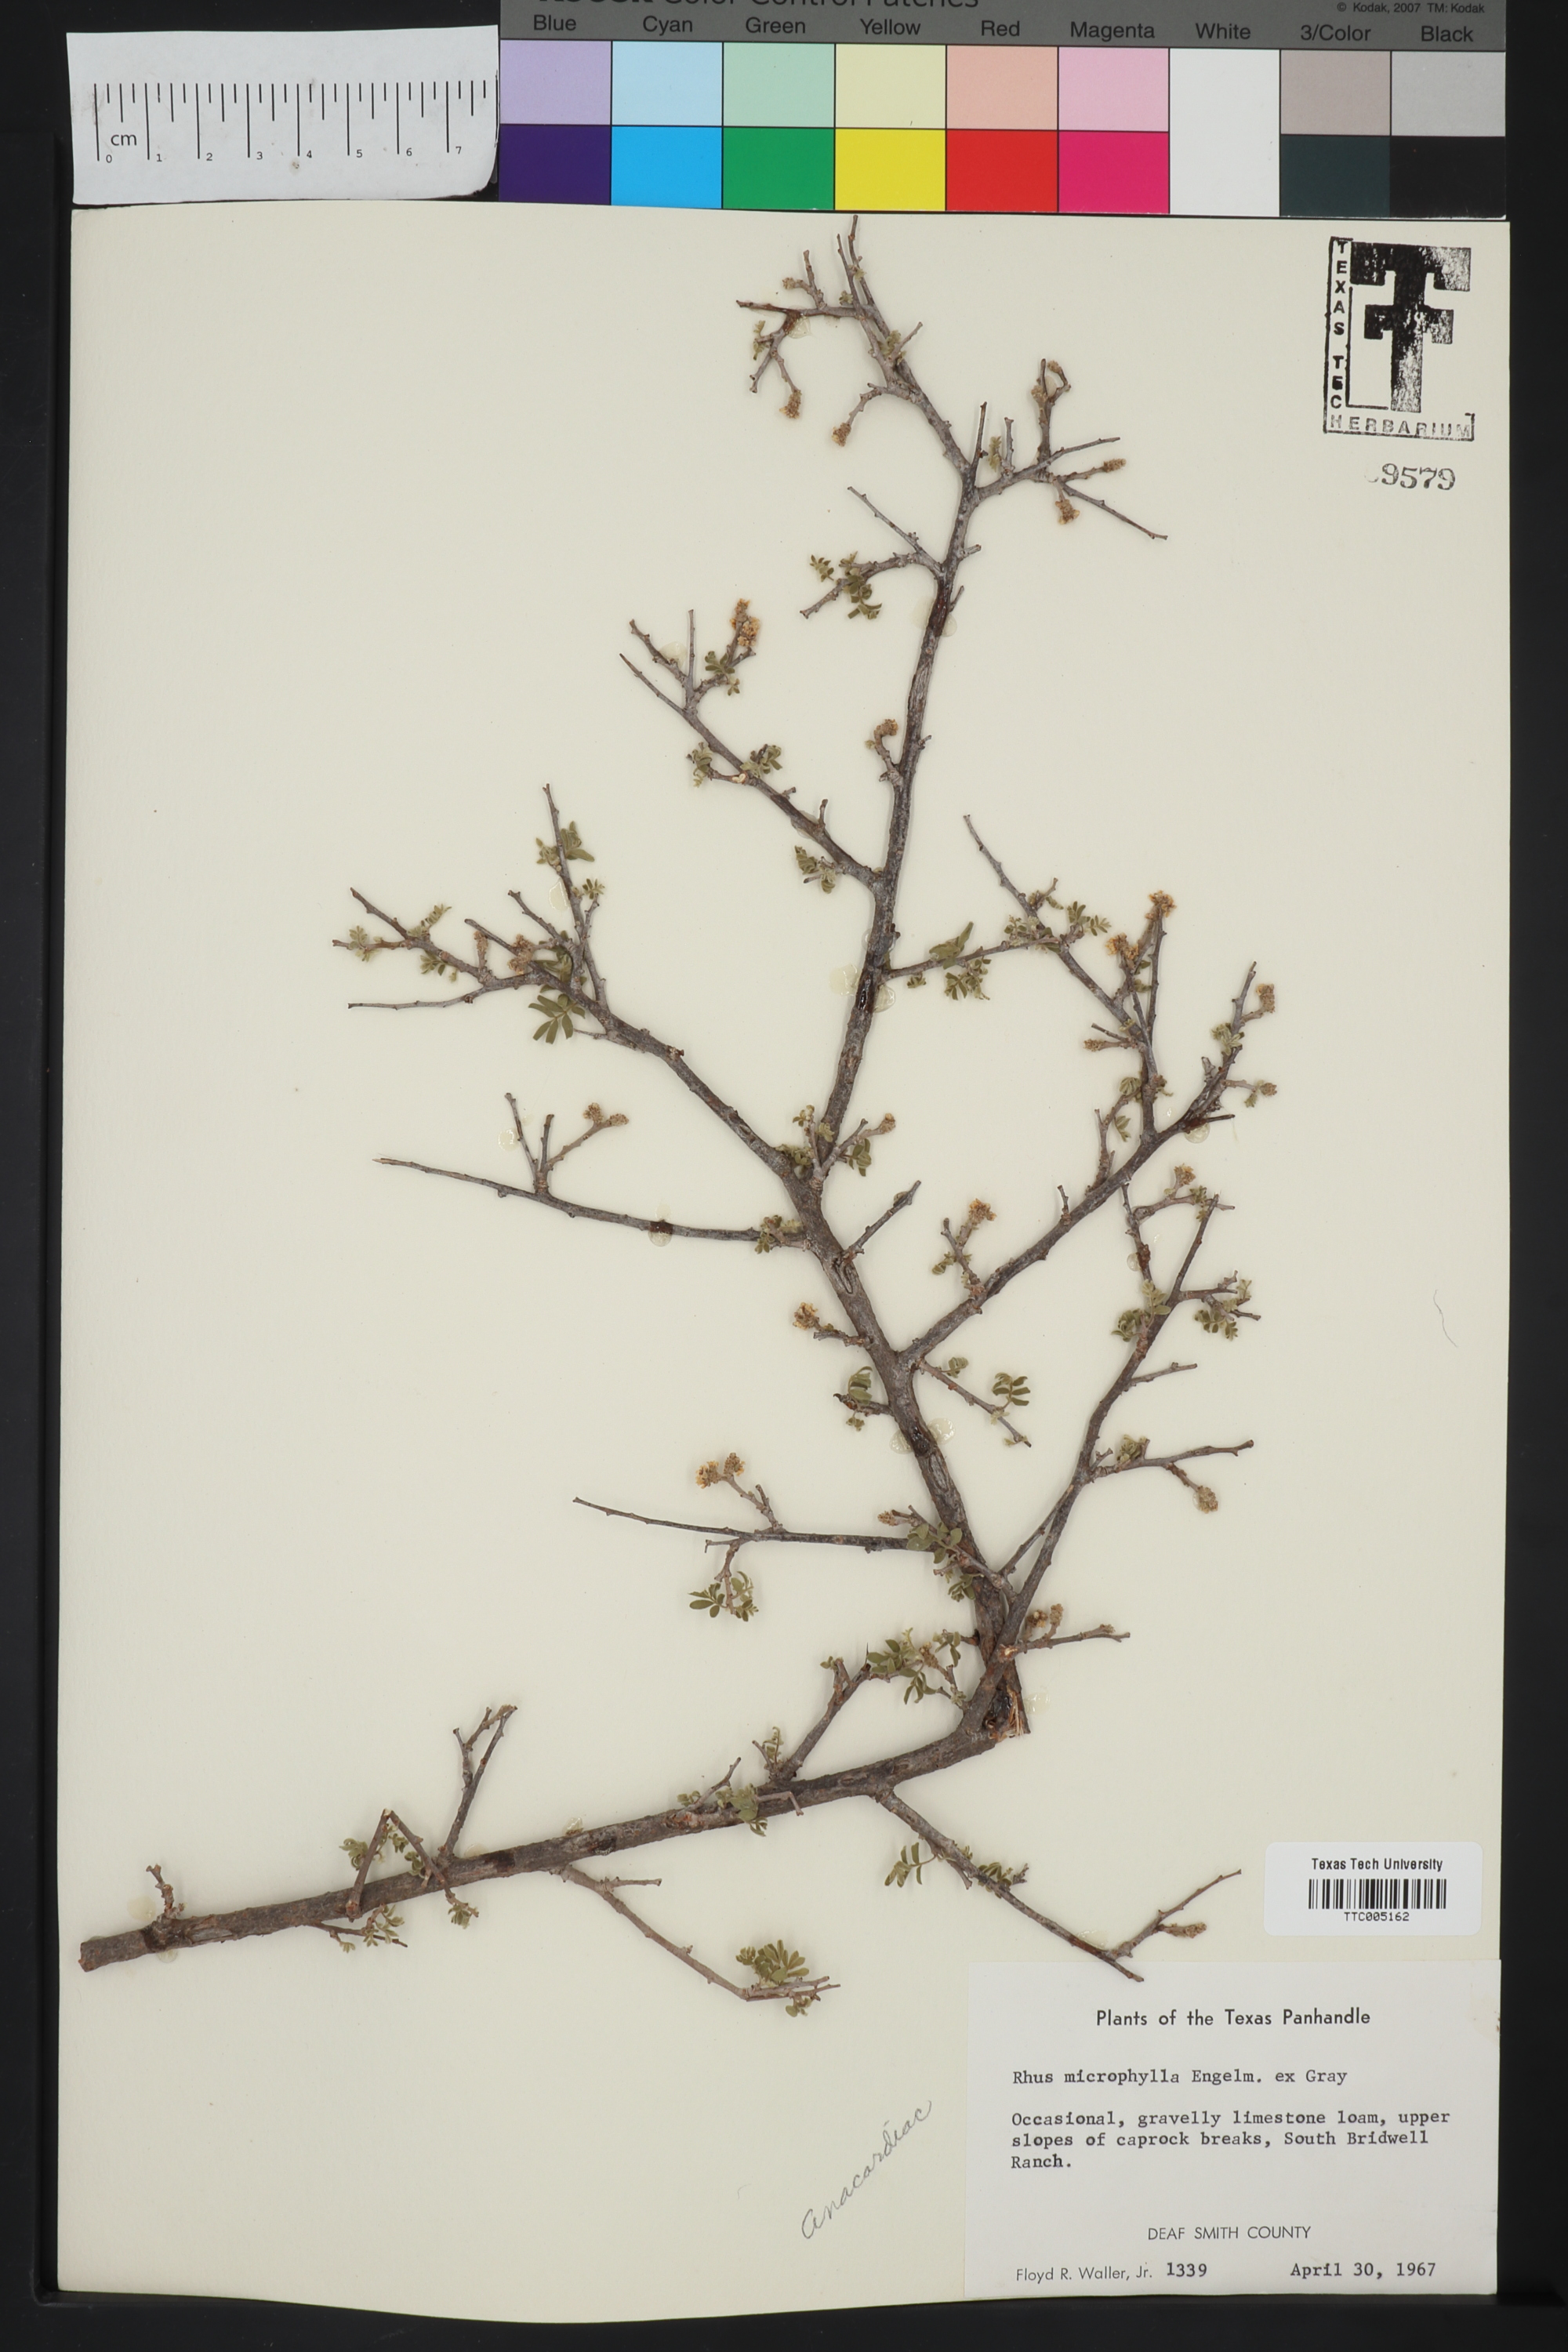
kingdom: Plantae
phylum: Tracheophyta
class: Magnoliopsida
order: Sapindales
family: Anacardiaceae
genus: Rhus
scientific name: Rhus microphylla
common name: Desert sumac
